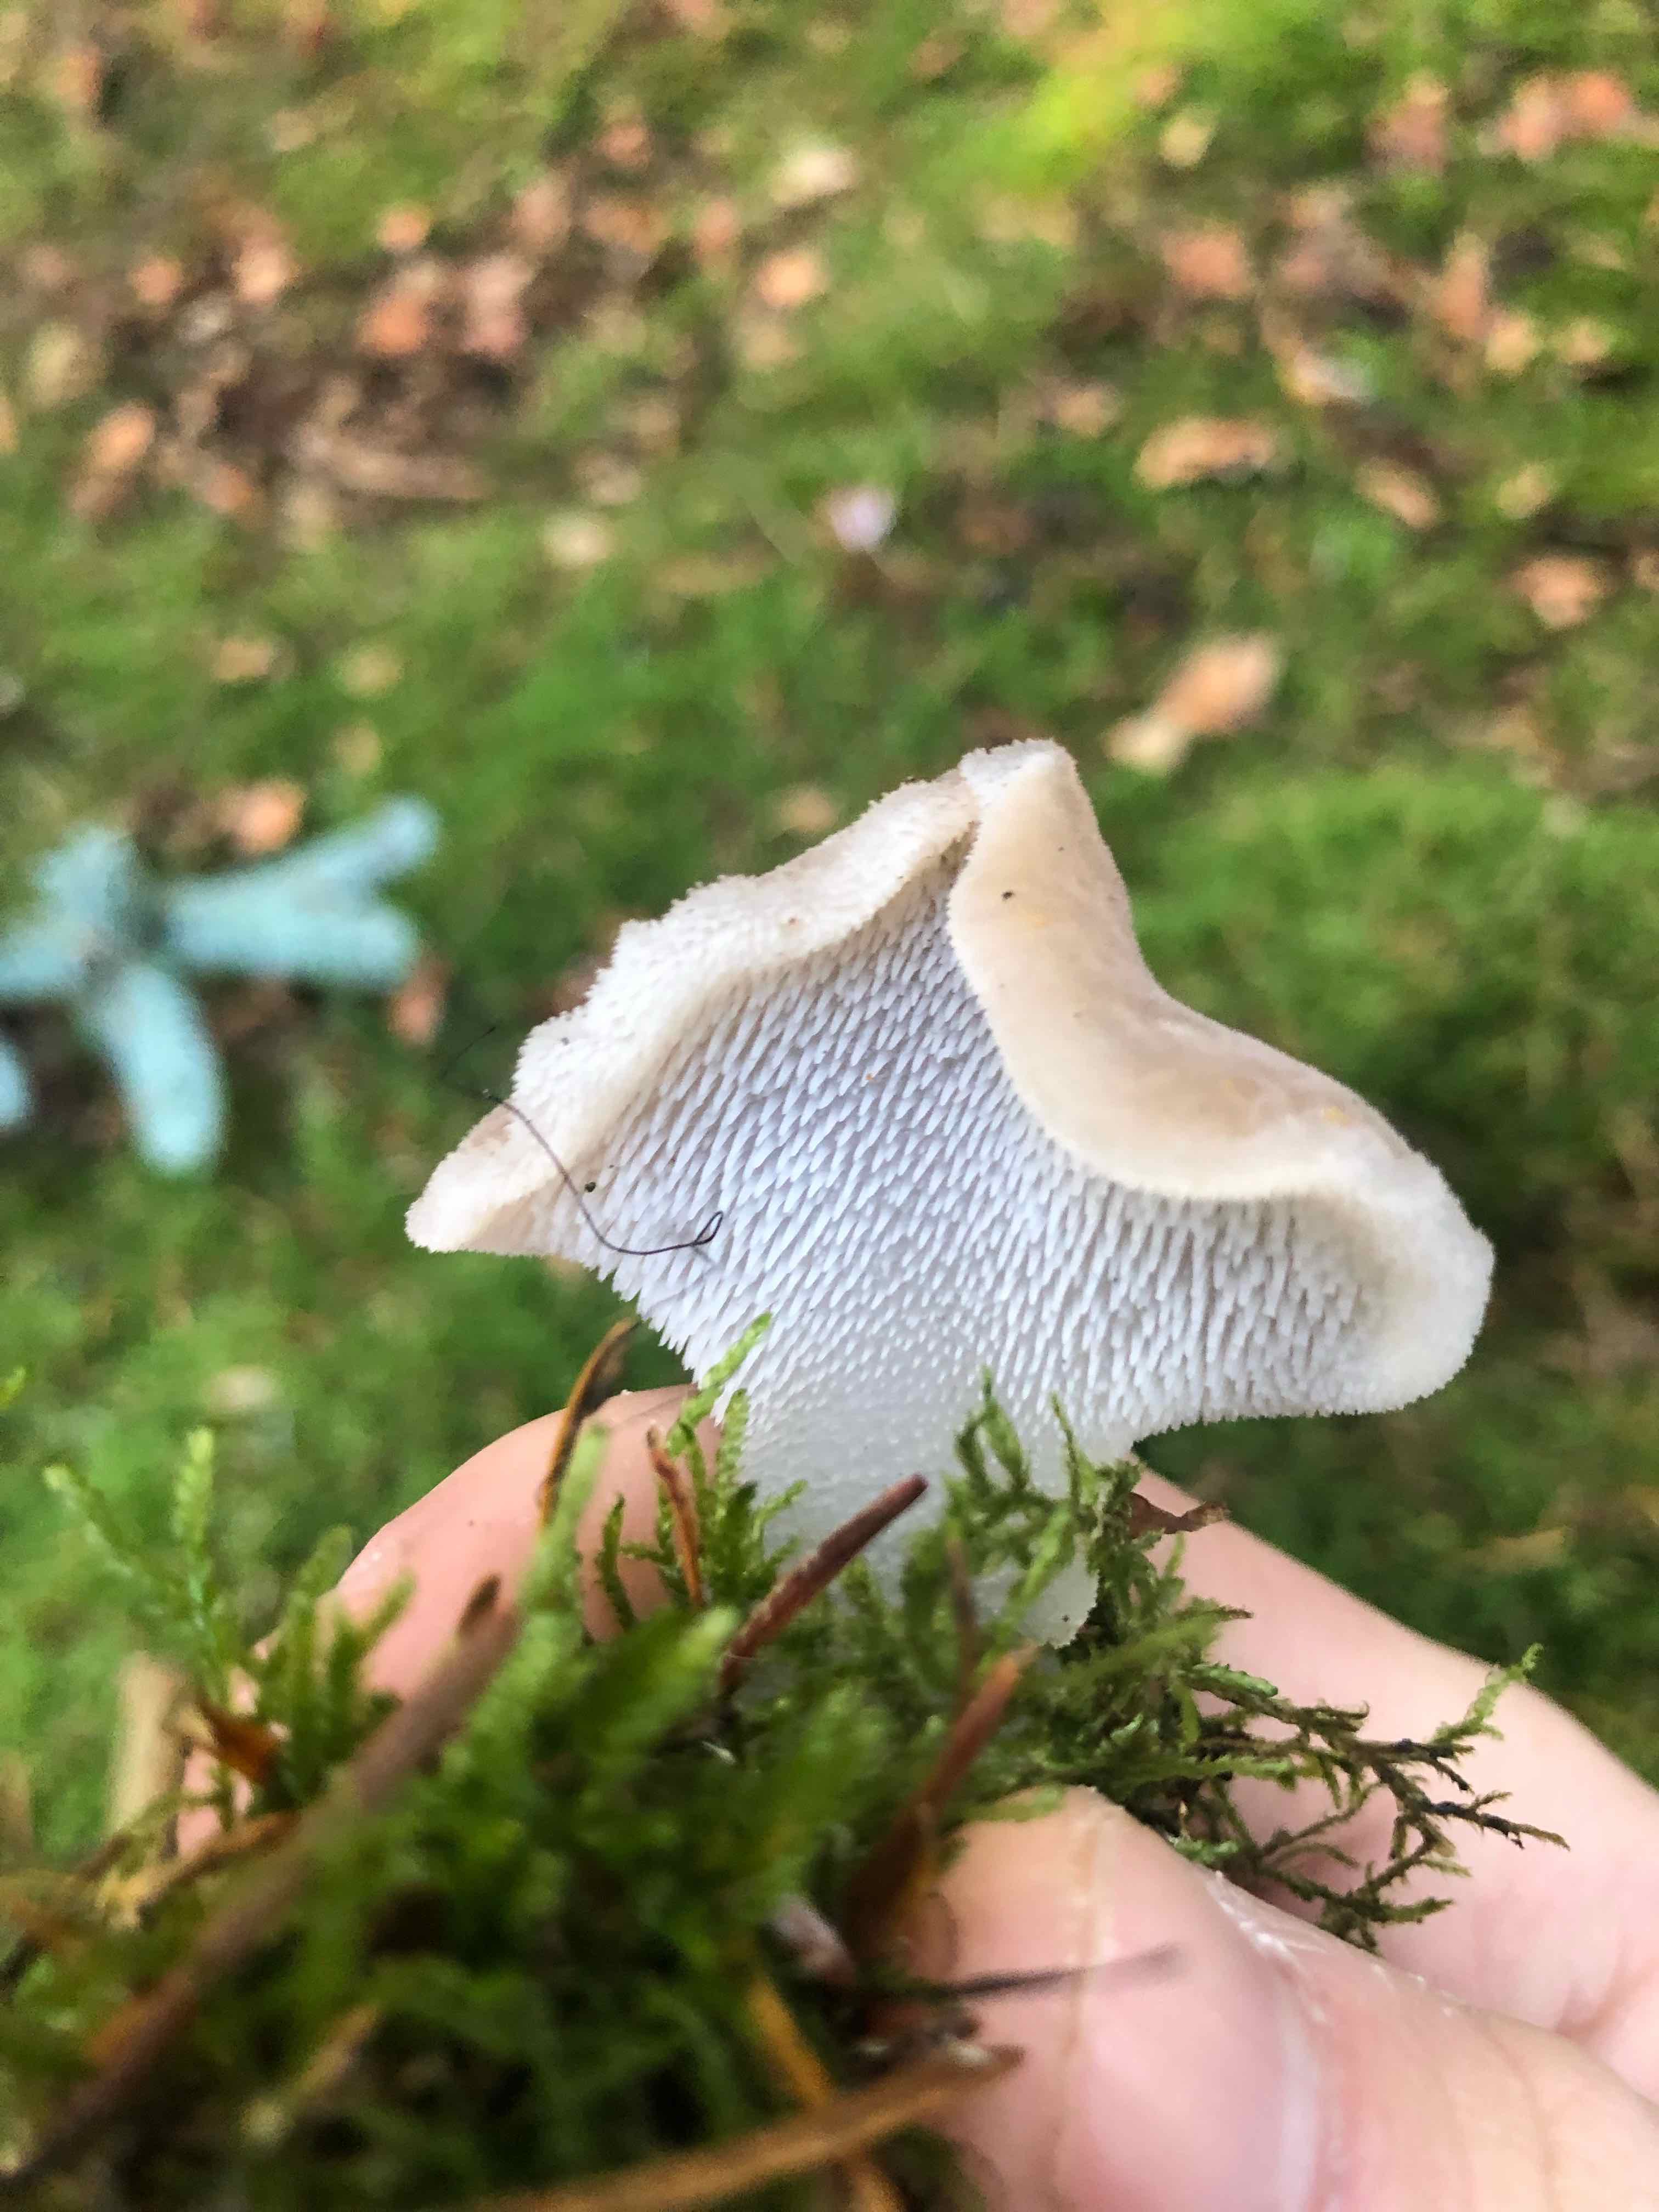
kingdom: Fungi
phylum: Basidiomycota
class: Agaricomycetes
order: Auriculariales
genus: Pseudohydnum
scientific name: Pseudohydnum gelatinosum
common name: bævretand
